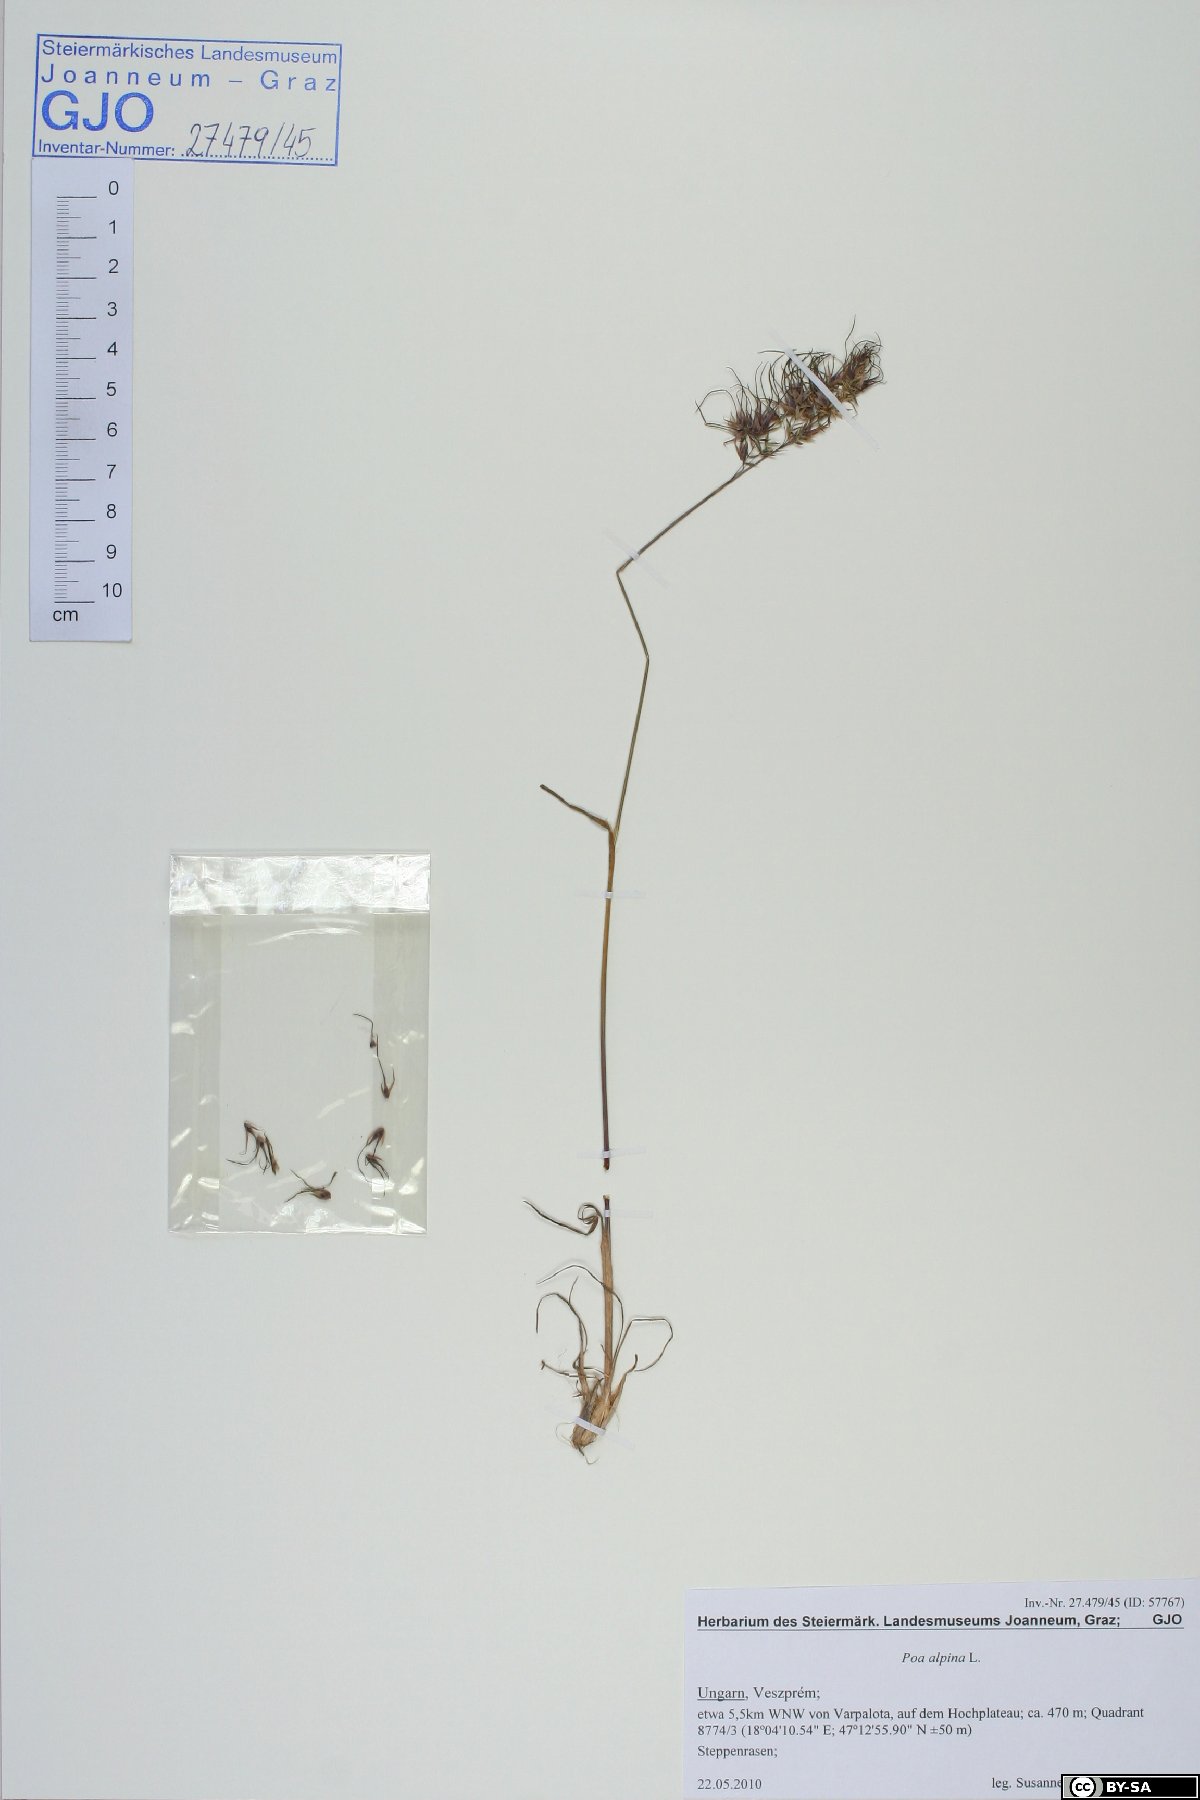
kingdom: Plantae
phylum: Tracheophyta
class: Liliopsida
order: Poales
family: Poaceae
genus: Poa
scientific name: Poa bulbosa
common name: Bulbous bluegrass
